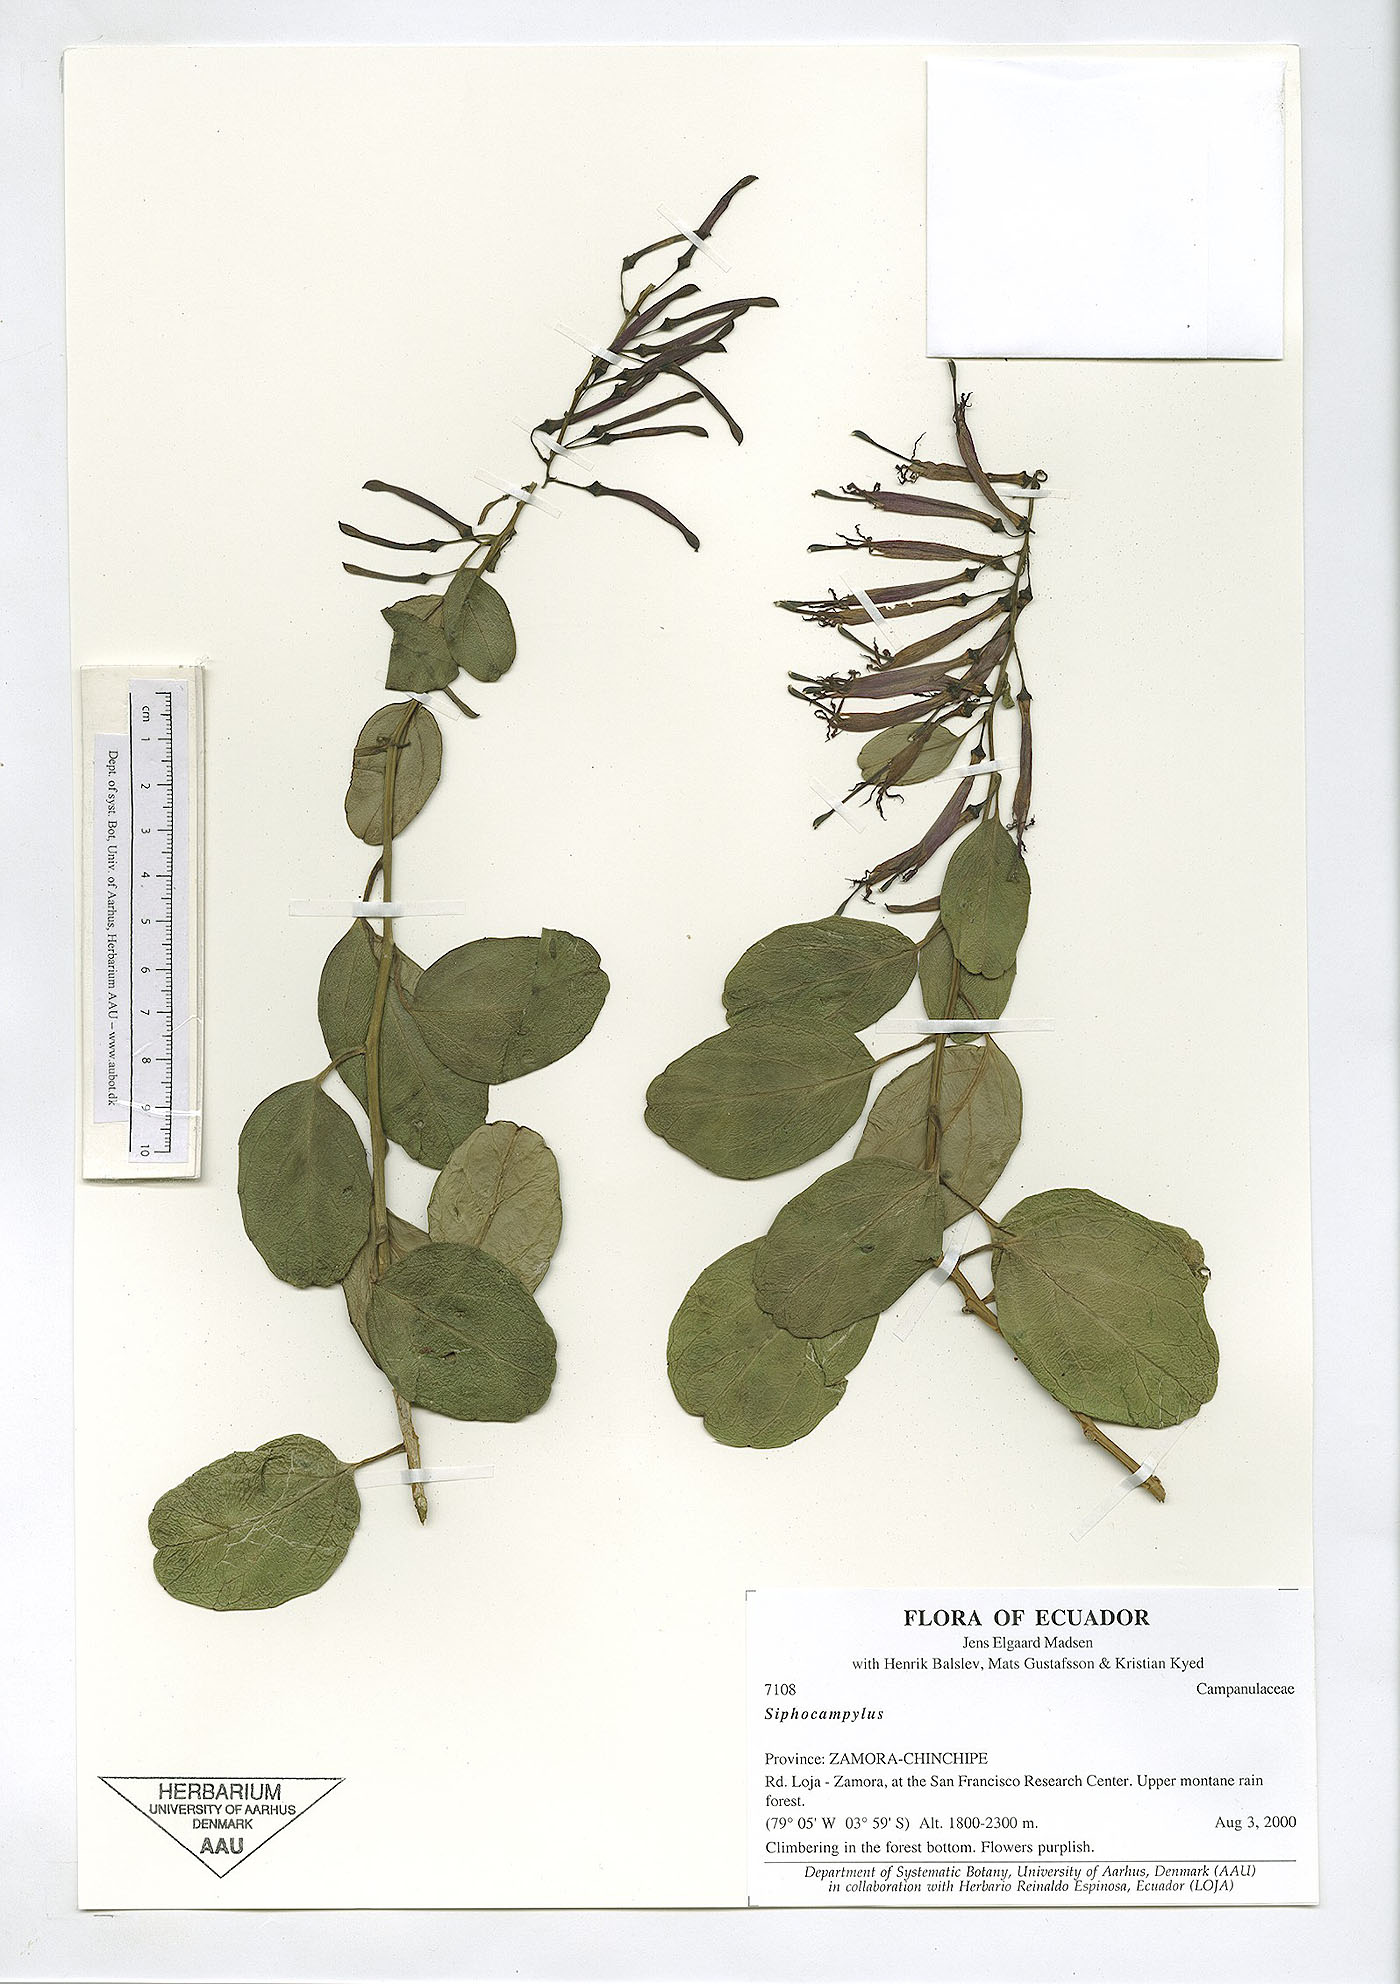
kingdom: Plantae
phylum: Tracheophyta
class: Magnoliopsida
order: Asterales
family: Campanulaceae
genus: Siphocampylus
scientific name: Siphocampylus
